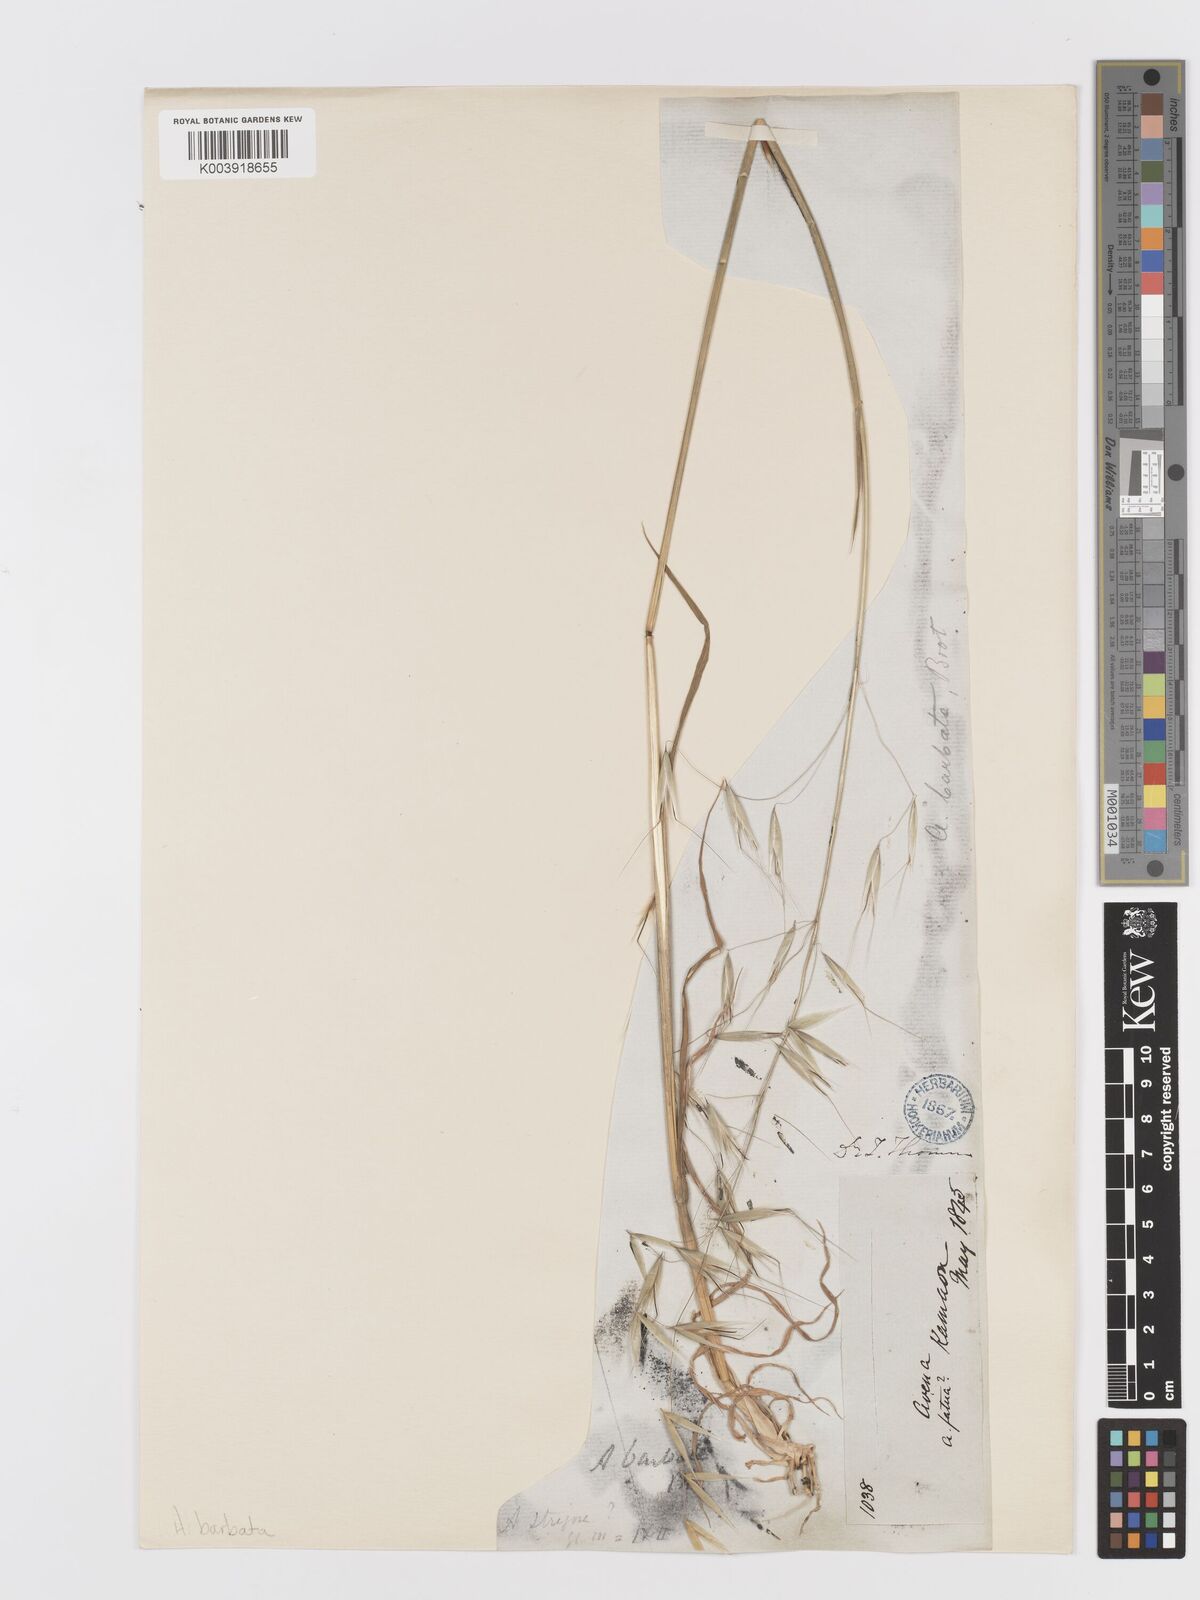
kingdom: Plantae
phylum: Tracheophyta
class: Liliopsida
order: Poales
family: Poaceae
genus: Avena
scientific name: Avena
